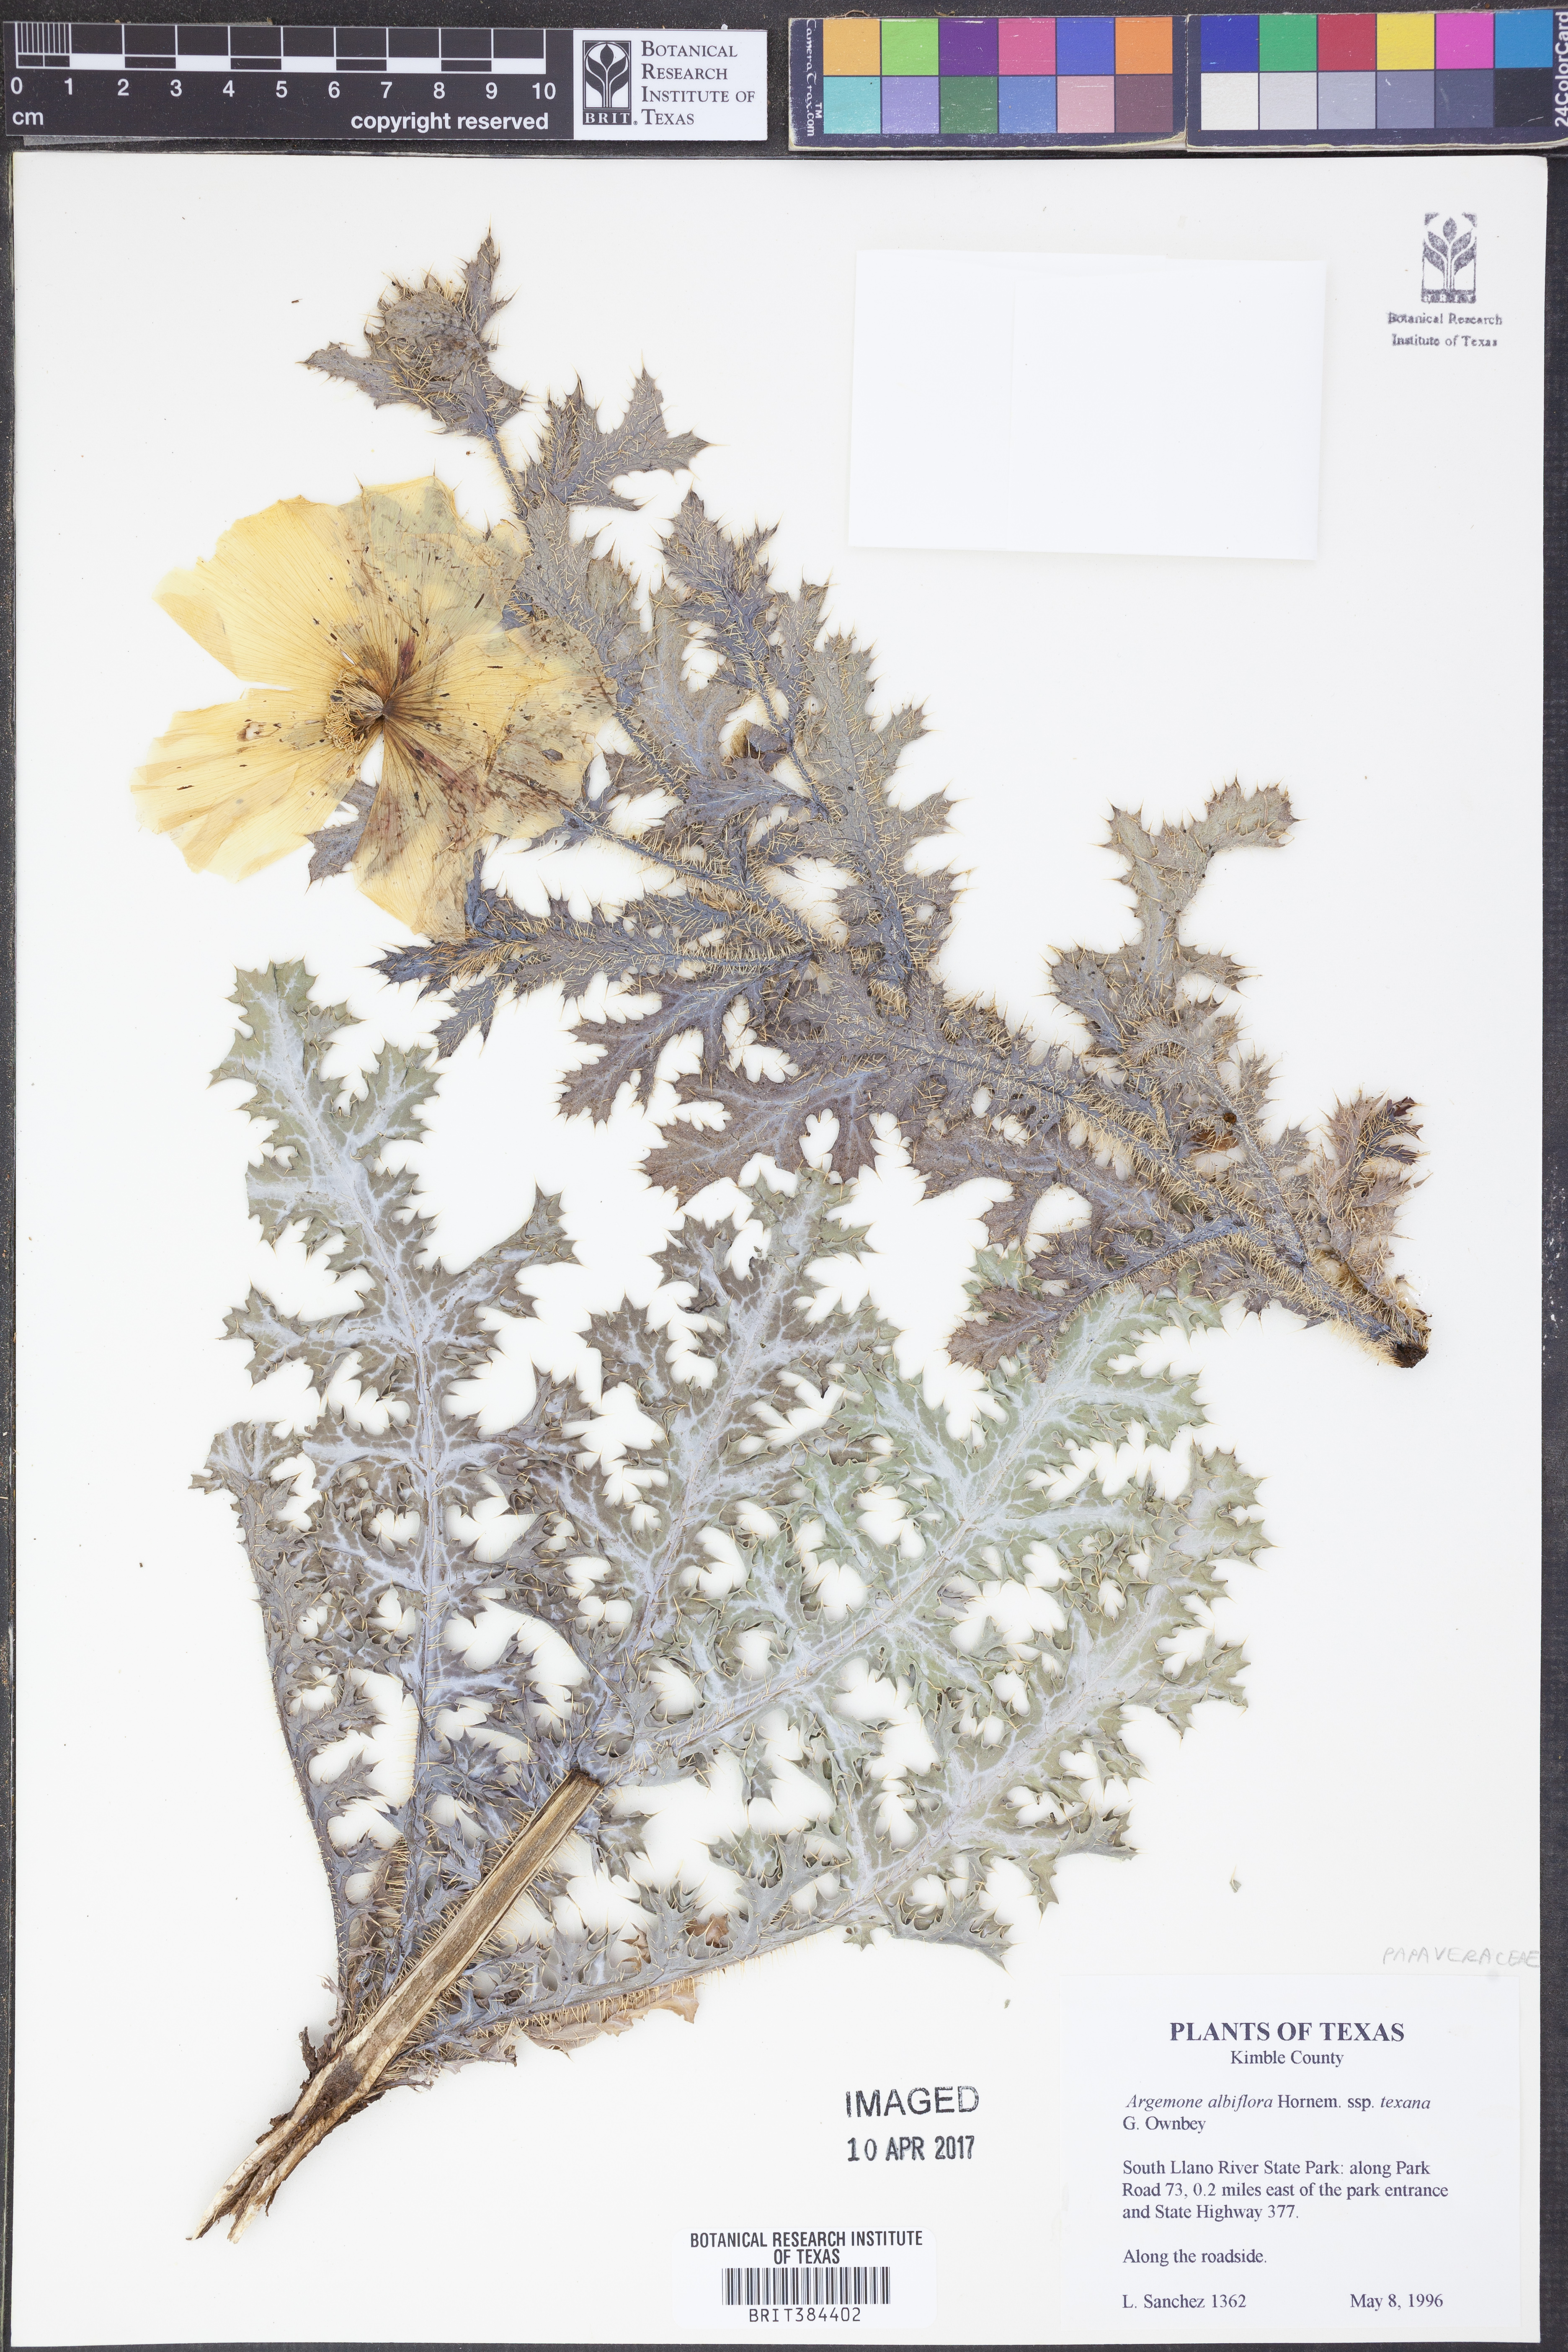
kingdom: Plantae
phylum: Tracheophyta
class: Magnoliopsida
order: Ranunculales
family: Papaveraceae
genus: Argemone
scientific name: Argemone albiflora
